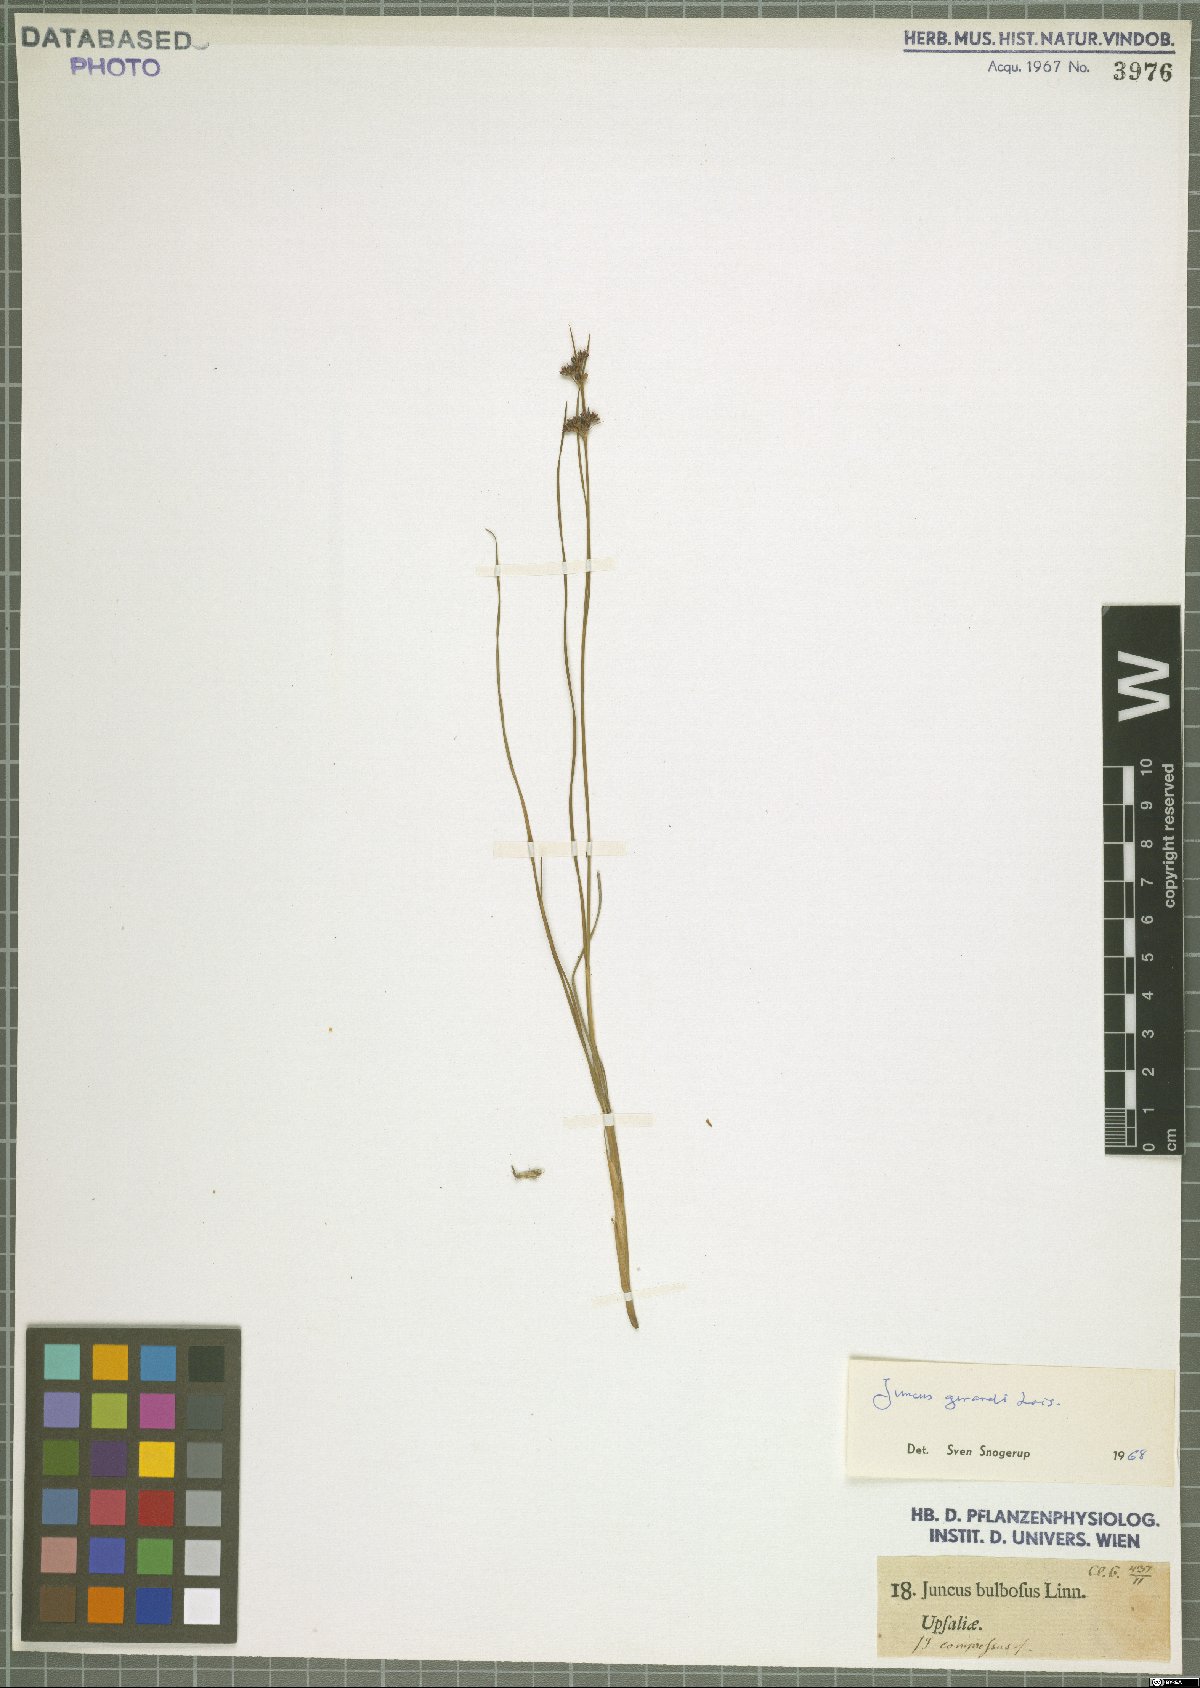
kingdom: Plantae
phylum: Tracheophyta
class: Liliopsida
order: Poales
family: Juncaceae
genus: Juncus
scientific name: Juncus gerardi
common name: Saltmarsh rush
